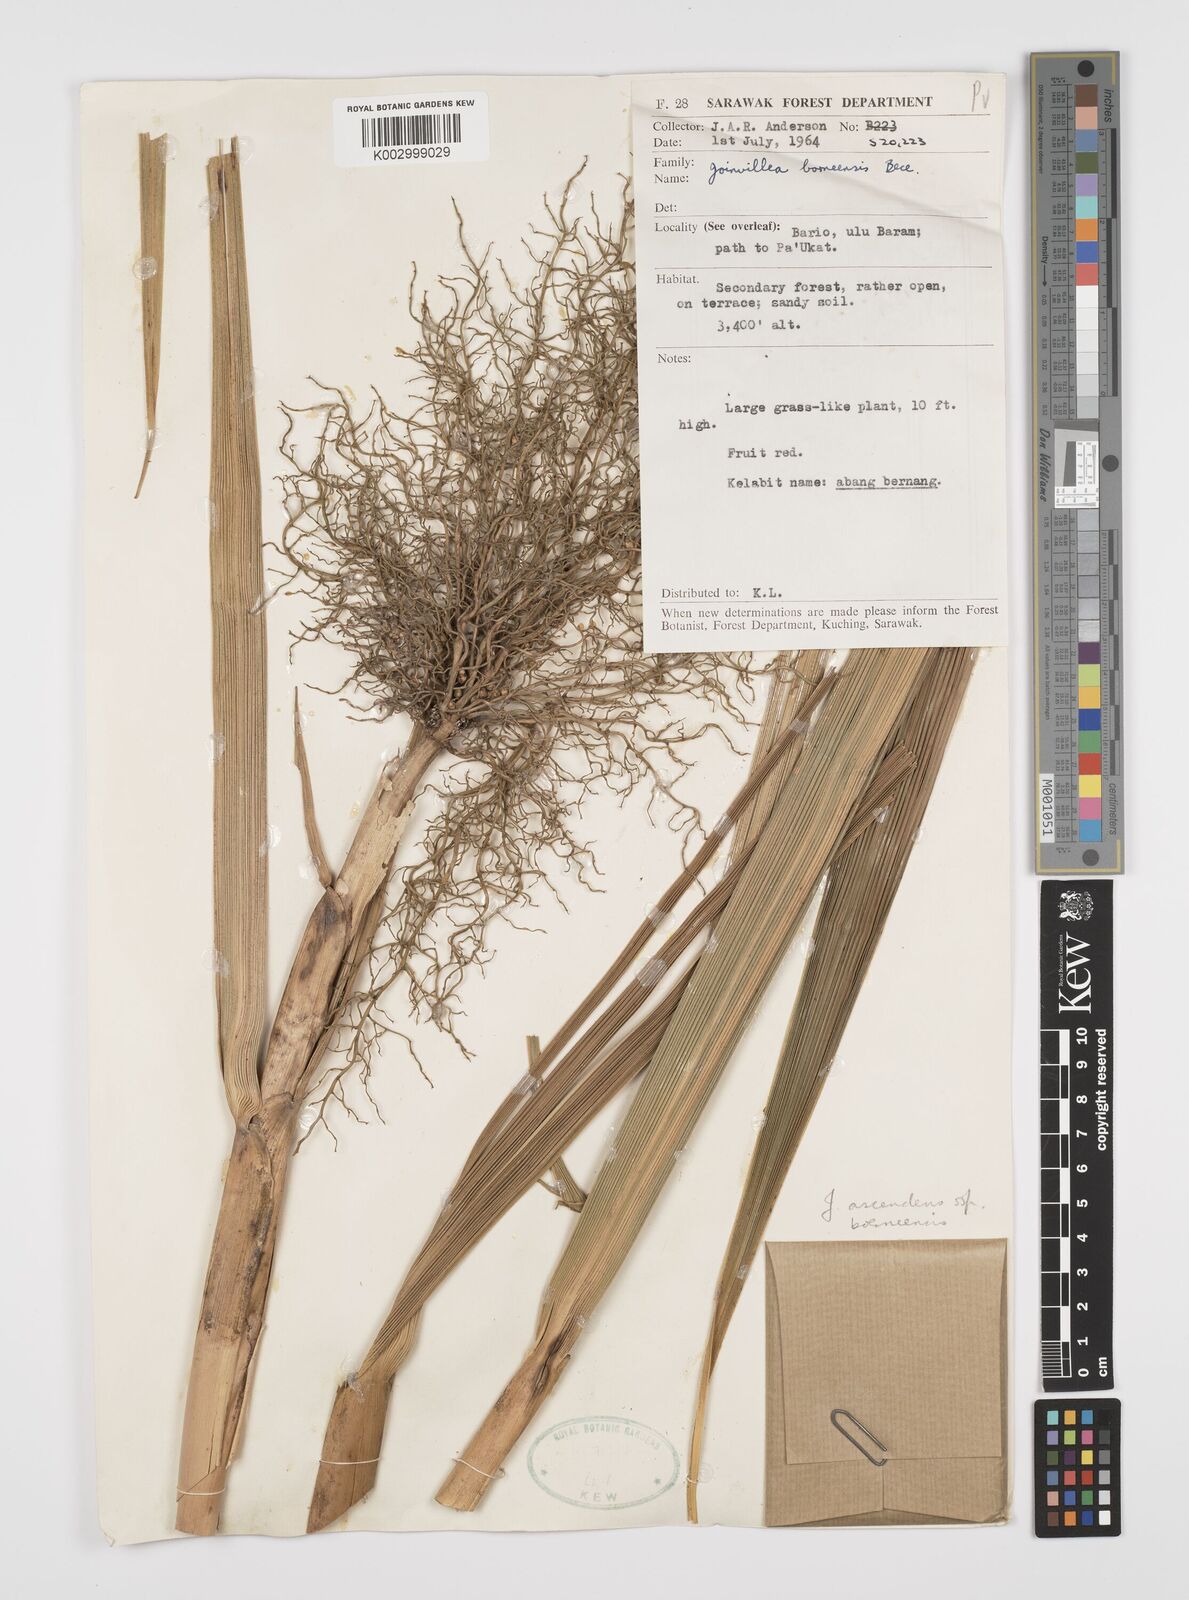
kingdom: Plantae
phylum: Tracheophyta
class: Liliopsida
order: Poales
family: Joinvilleaceae
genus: Joinvillea
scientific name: Joinvillea borneensis
